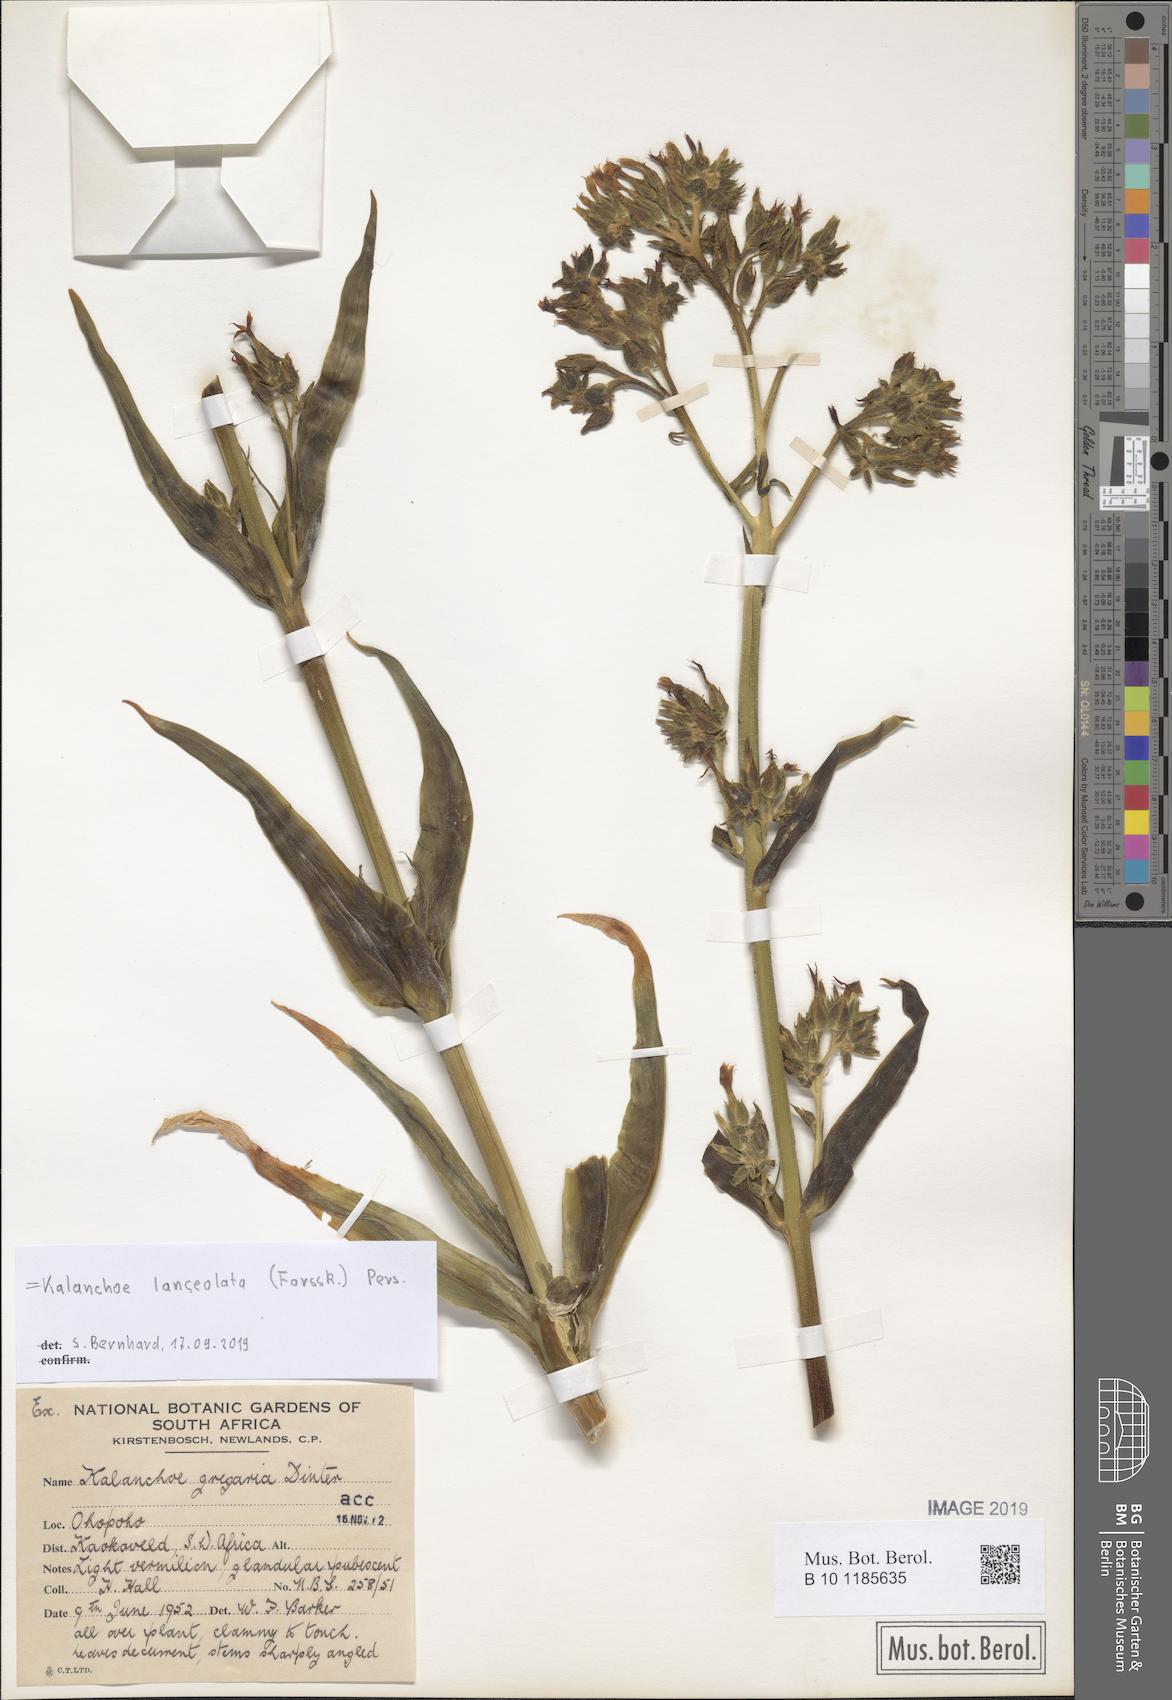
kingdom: Plantae
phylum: Tracheophyta
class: Magnoliopsida
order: Saxifragales
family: Crassulaceae
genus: Kalanchoe
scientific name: Kalanchoe lanceolata
